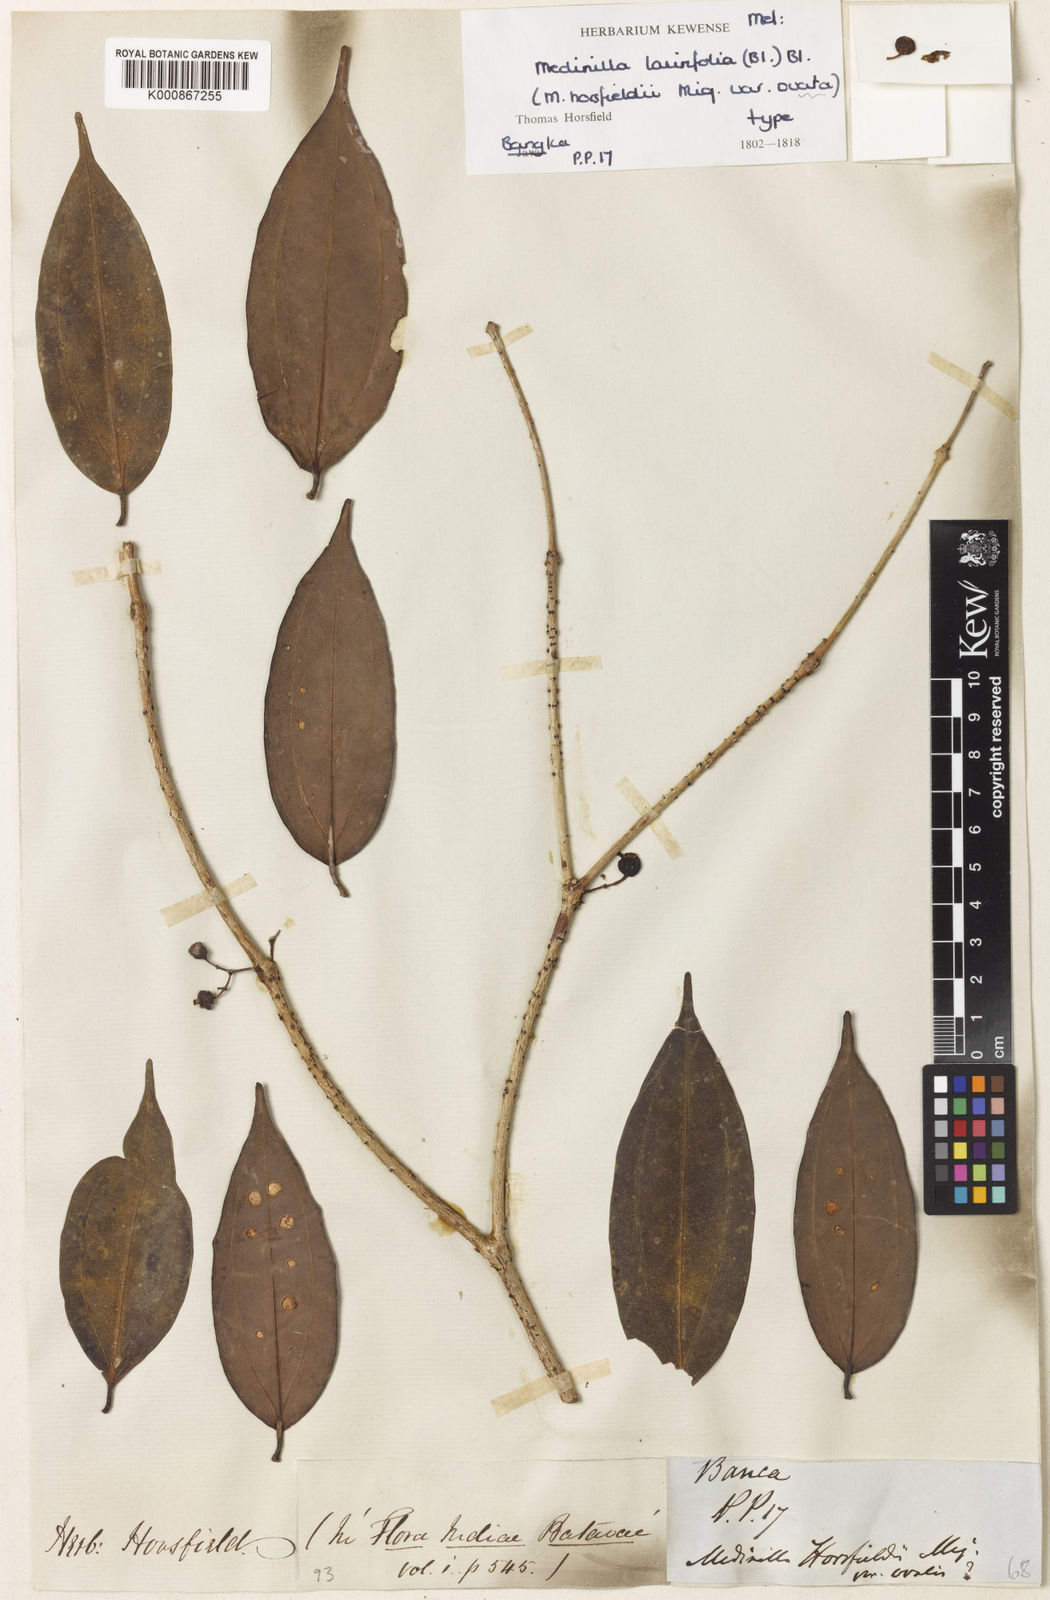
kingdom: Plantae
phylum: Tracheophyta
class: Magnoliopsida
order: Myrtales
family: Melastomataceae
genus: Medinilla
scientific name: Medinilla laurifolia
